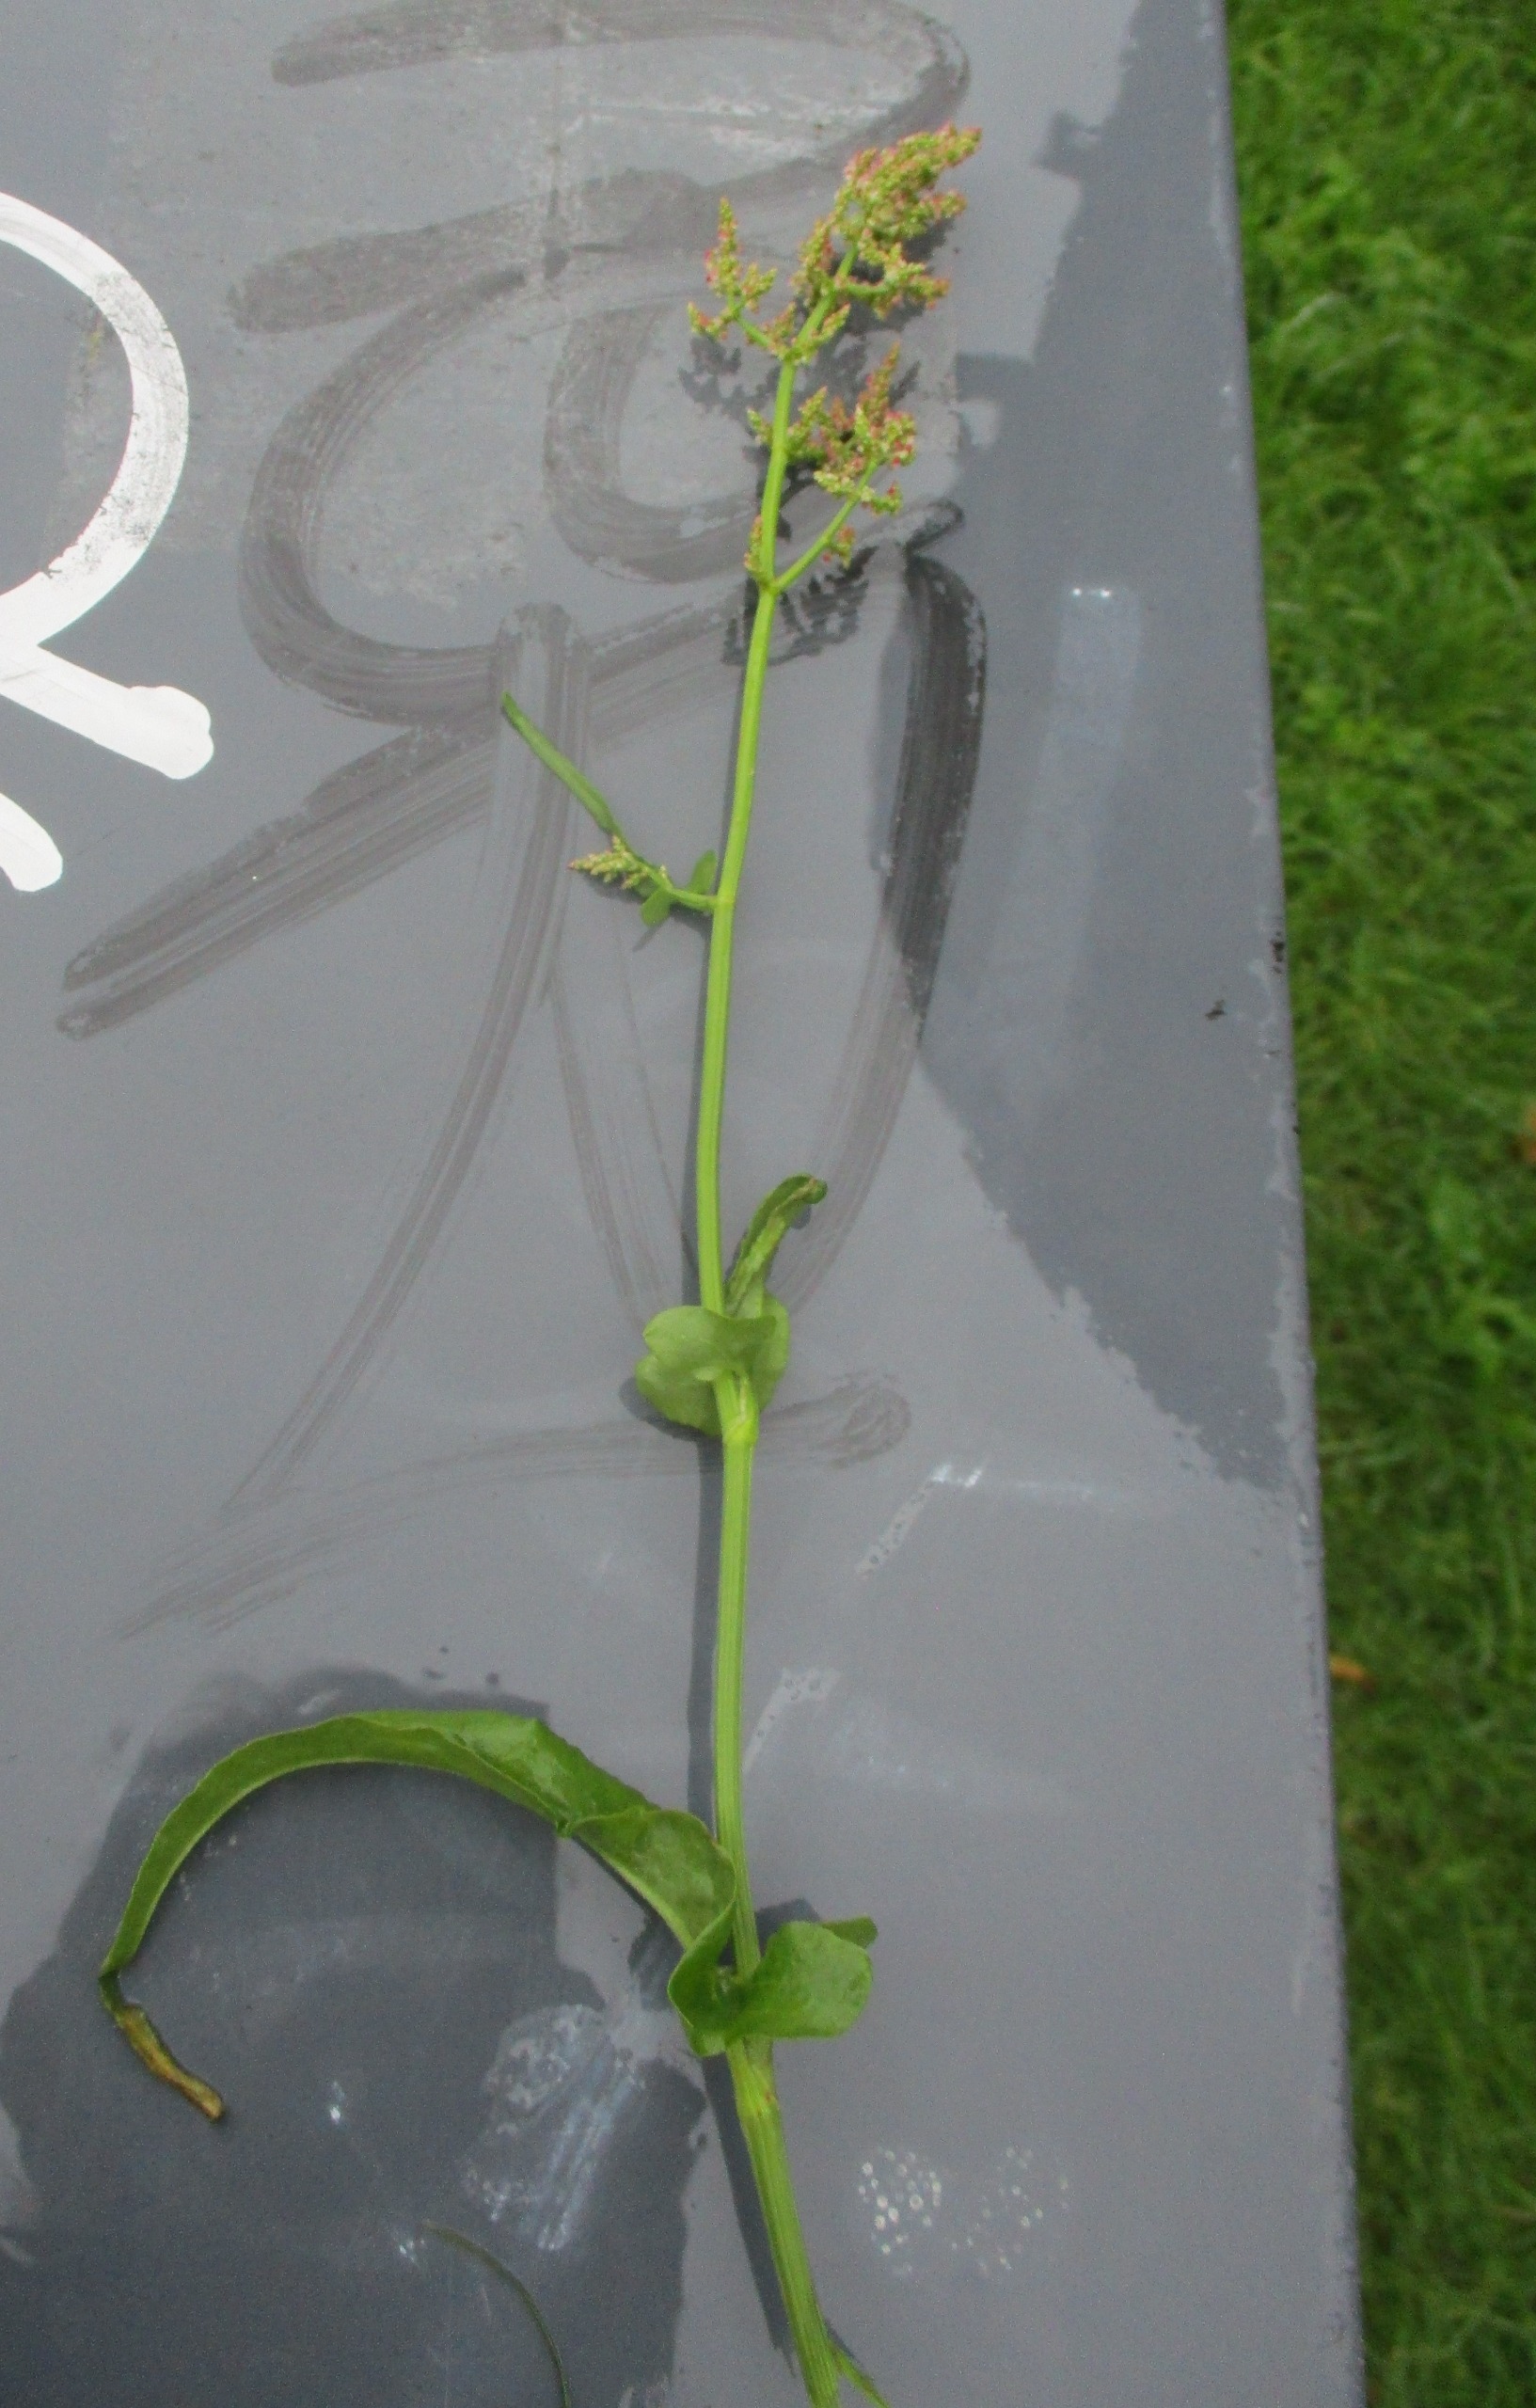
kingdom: Plantae
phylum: Tracheophyta
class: Magnoliopsida
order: Caryophyllales
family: Polygonaceae
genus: Rumex
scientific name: Rumex thyrsiflorus
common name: Dusk-syre
